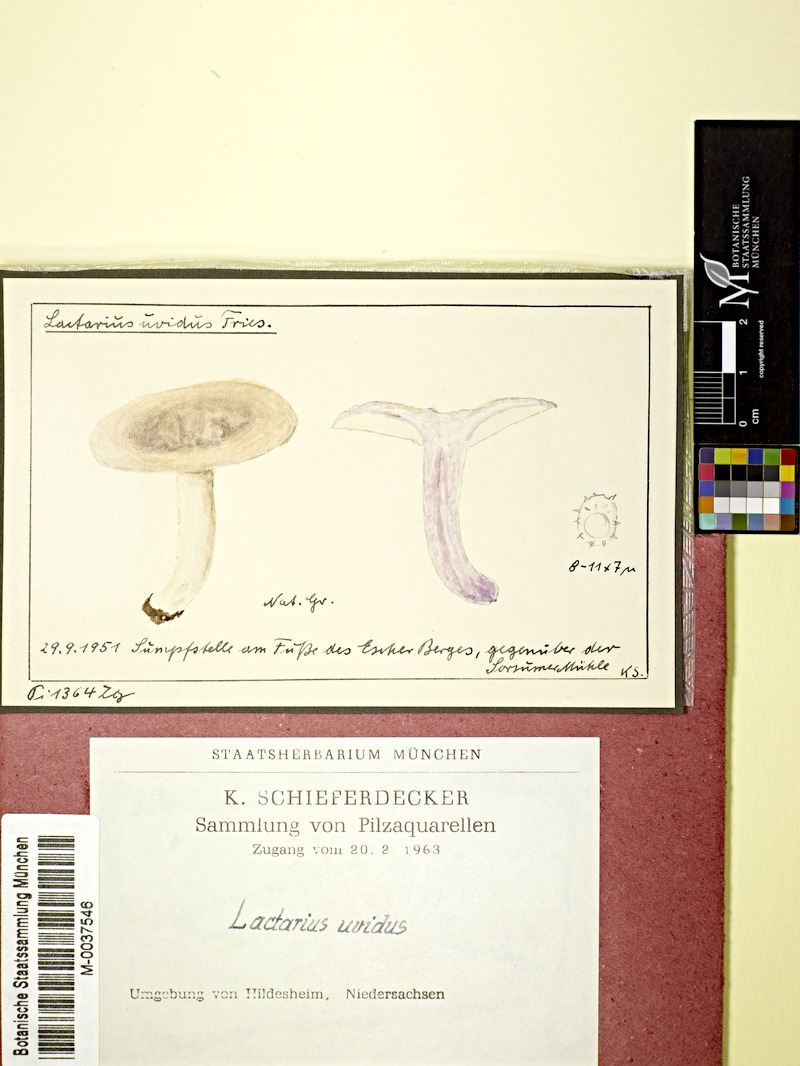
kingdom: Fungi
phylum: Basidiomycota
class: Agaricomycetes
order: Russulales
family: Russulaceae
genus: Lactarius
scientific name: Lactarius uvidus
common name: Shiner milkcap
